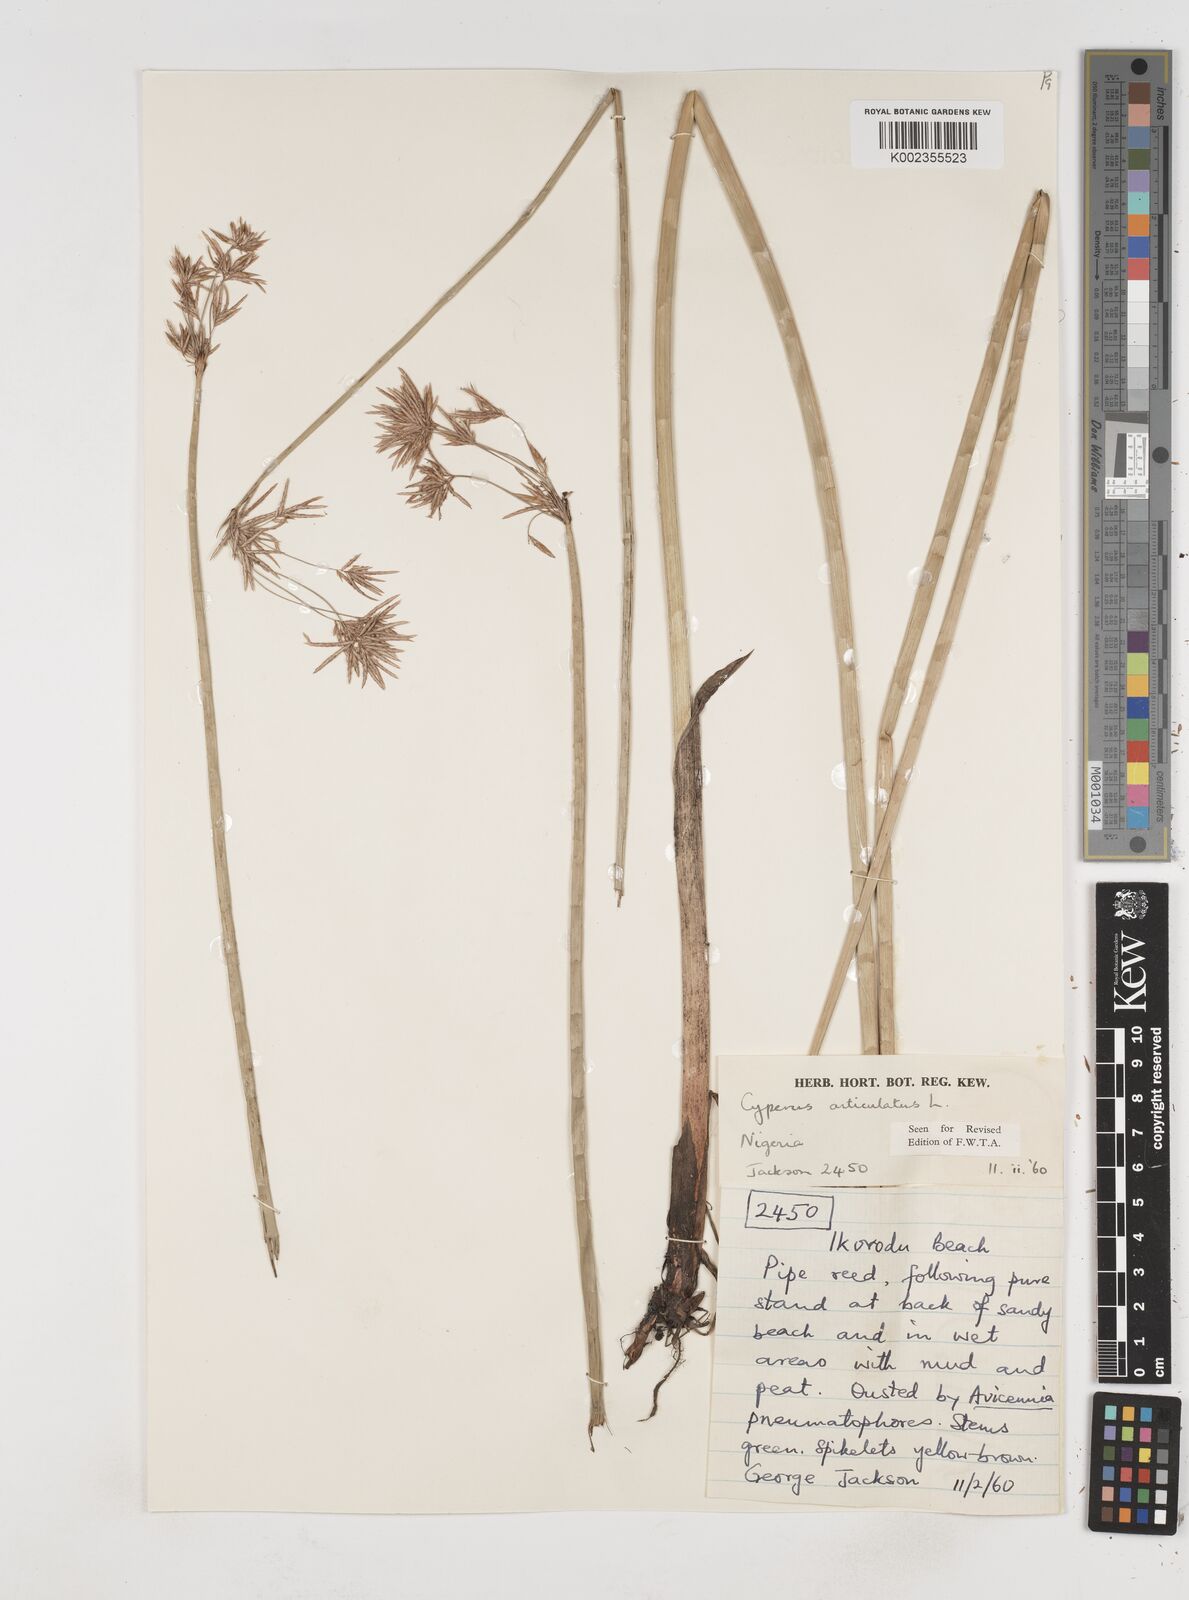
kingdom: Plantae
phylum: Tracheophyta
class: Liliopsida
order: Poales
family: Cyperaceae
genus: Cyperus
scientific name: Cyperus articulatus
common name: Jointed flatsedge
